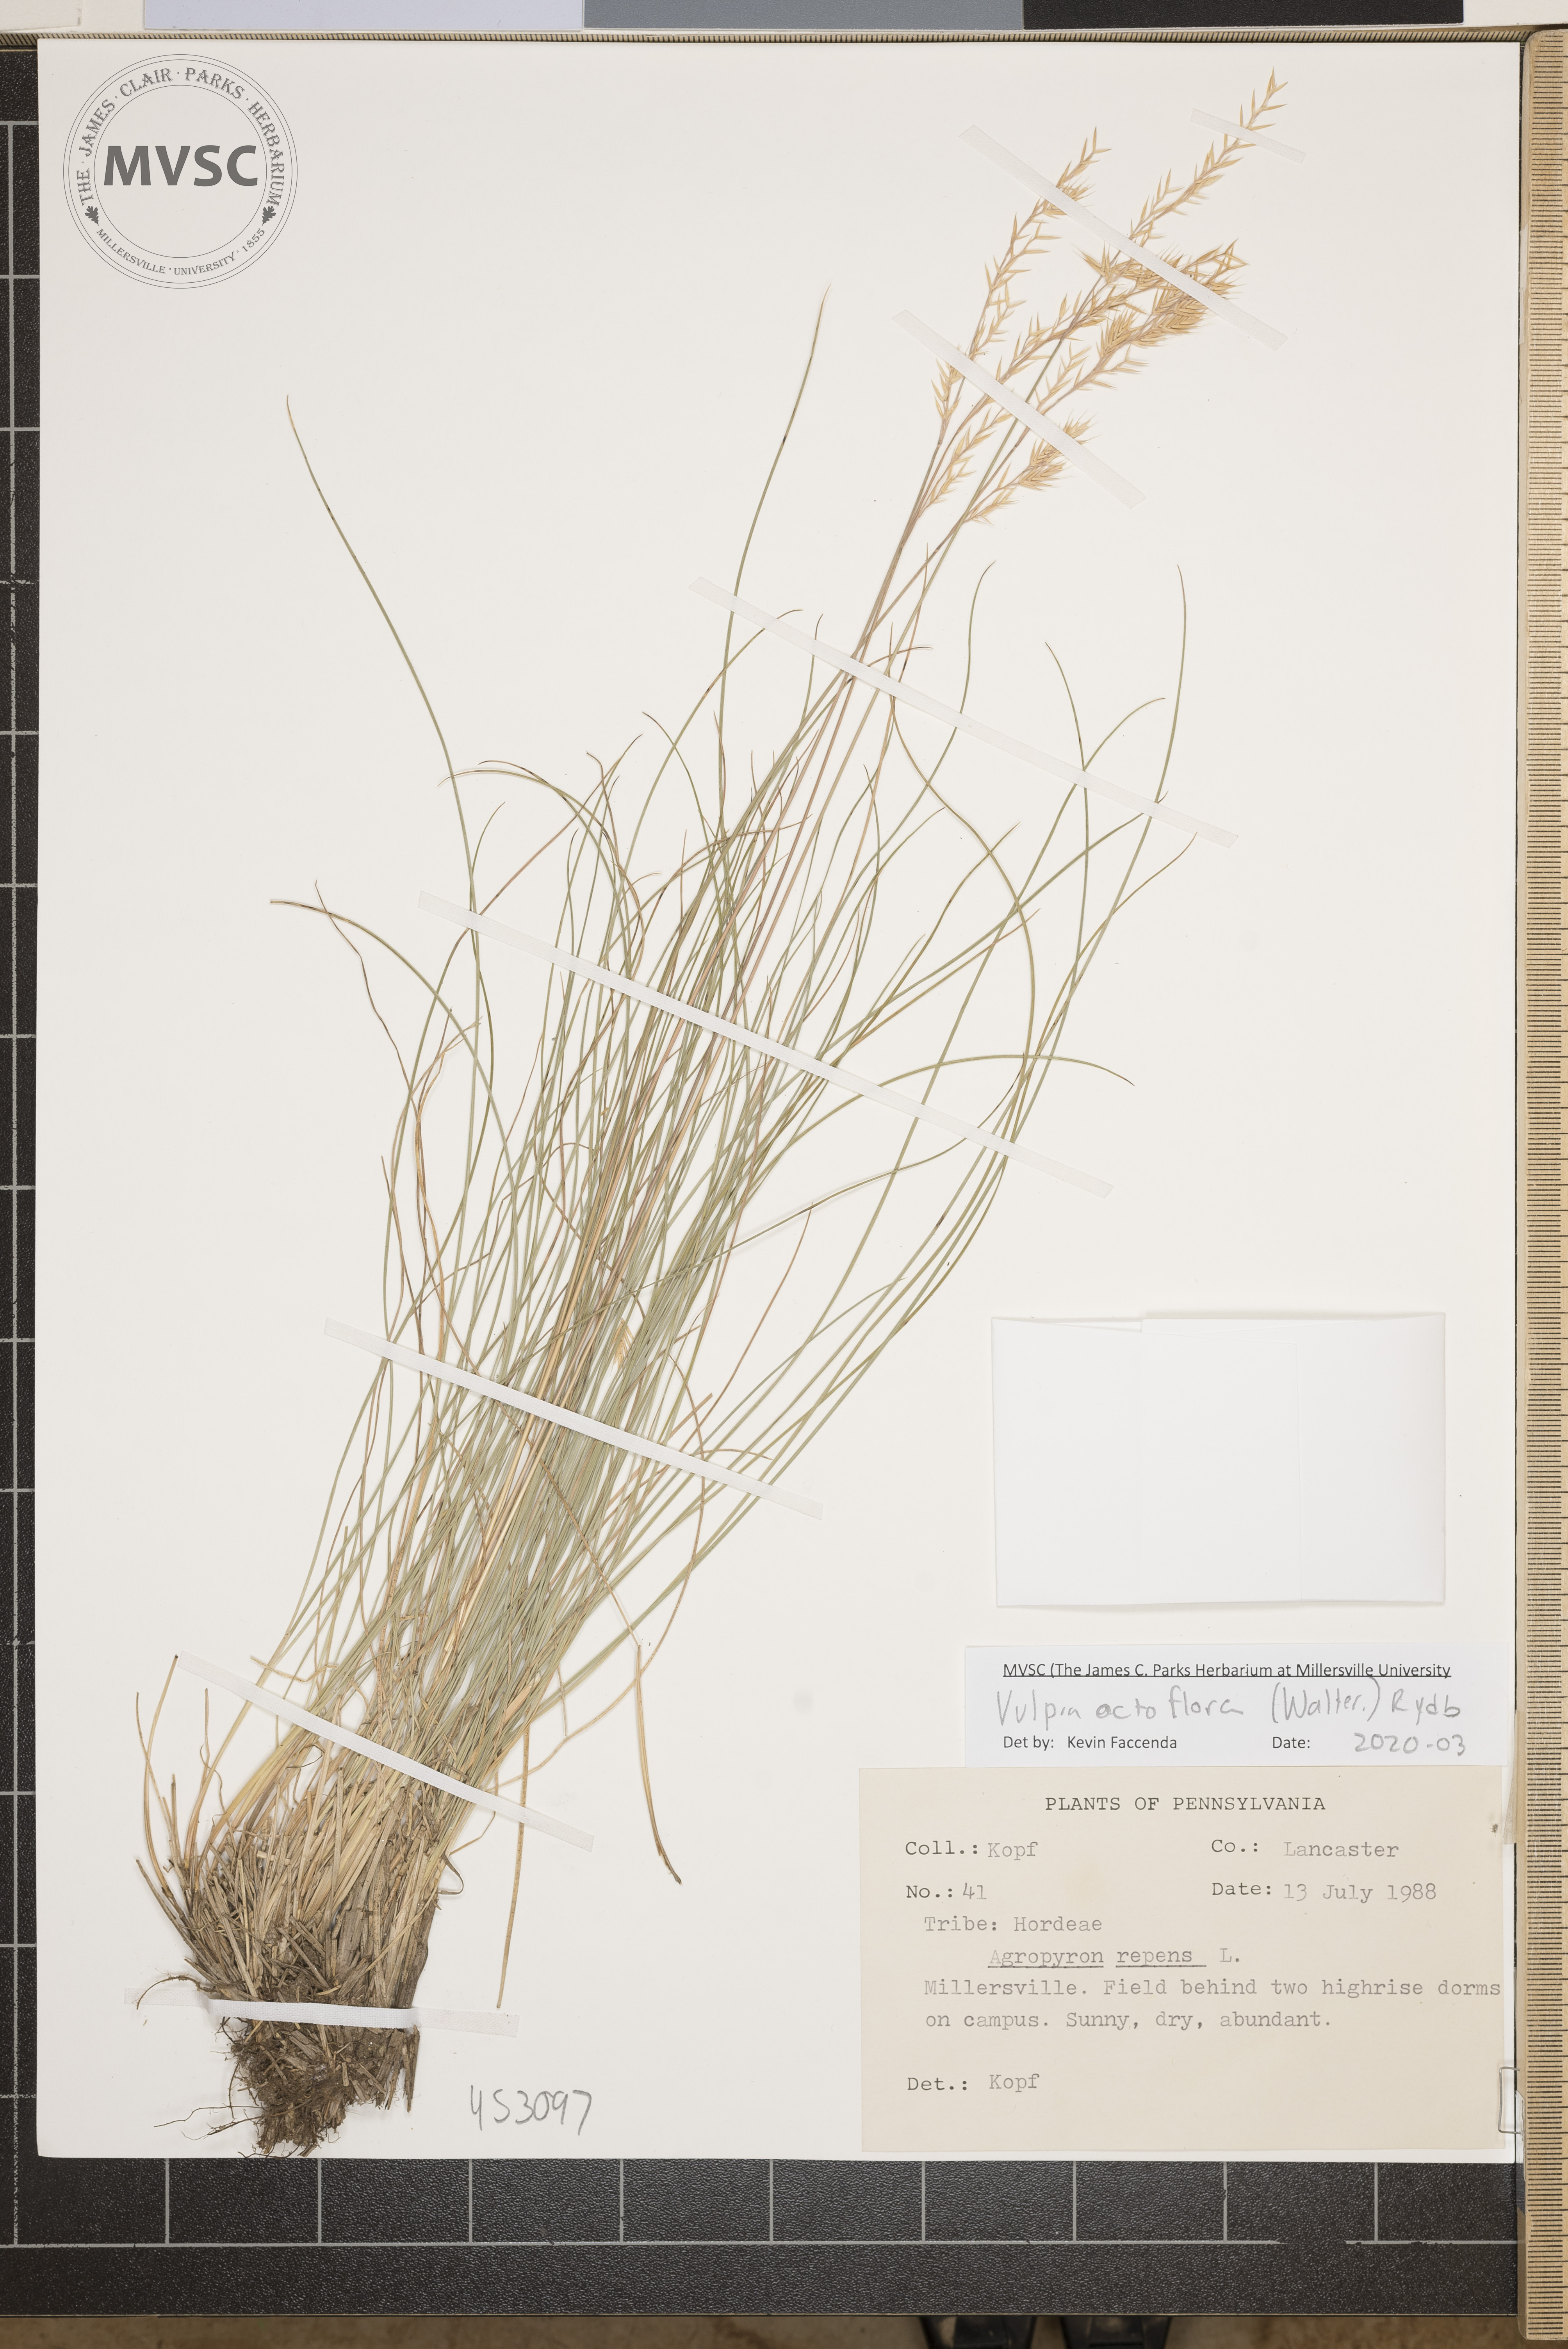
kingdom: Plantae
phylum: Tracheophyta
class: Liliopsida
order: Poales
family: Poaceae
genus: Festuca
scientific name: Festuca octoflora
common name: Sixweeks grass
